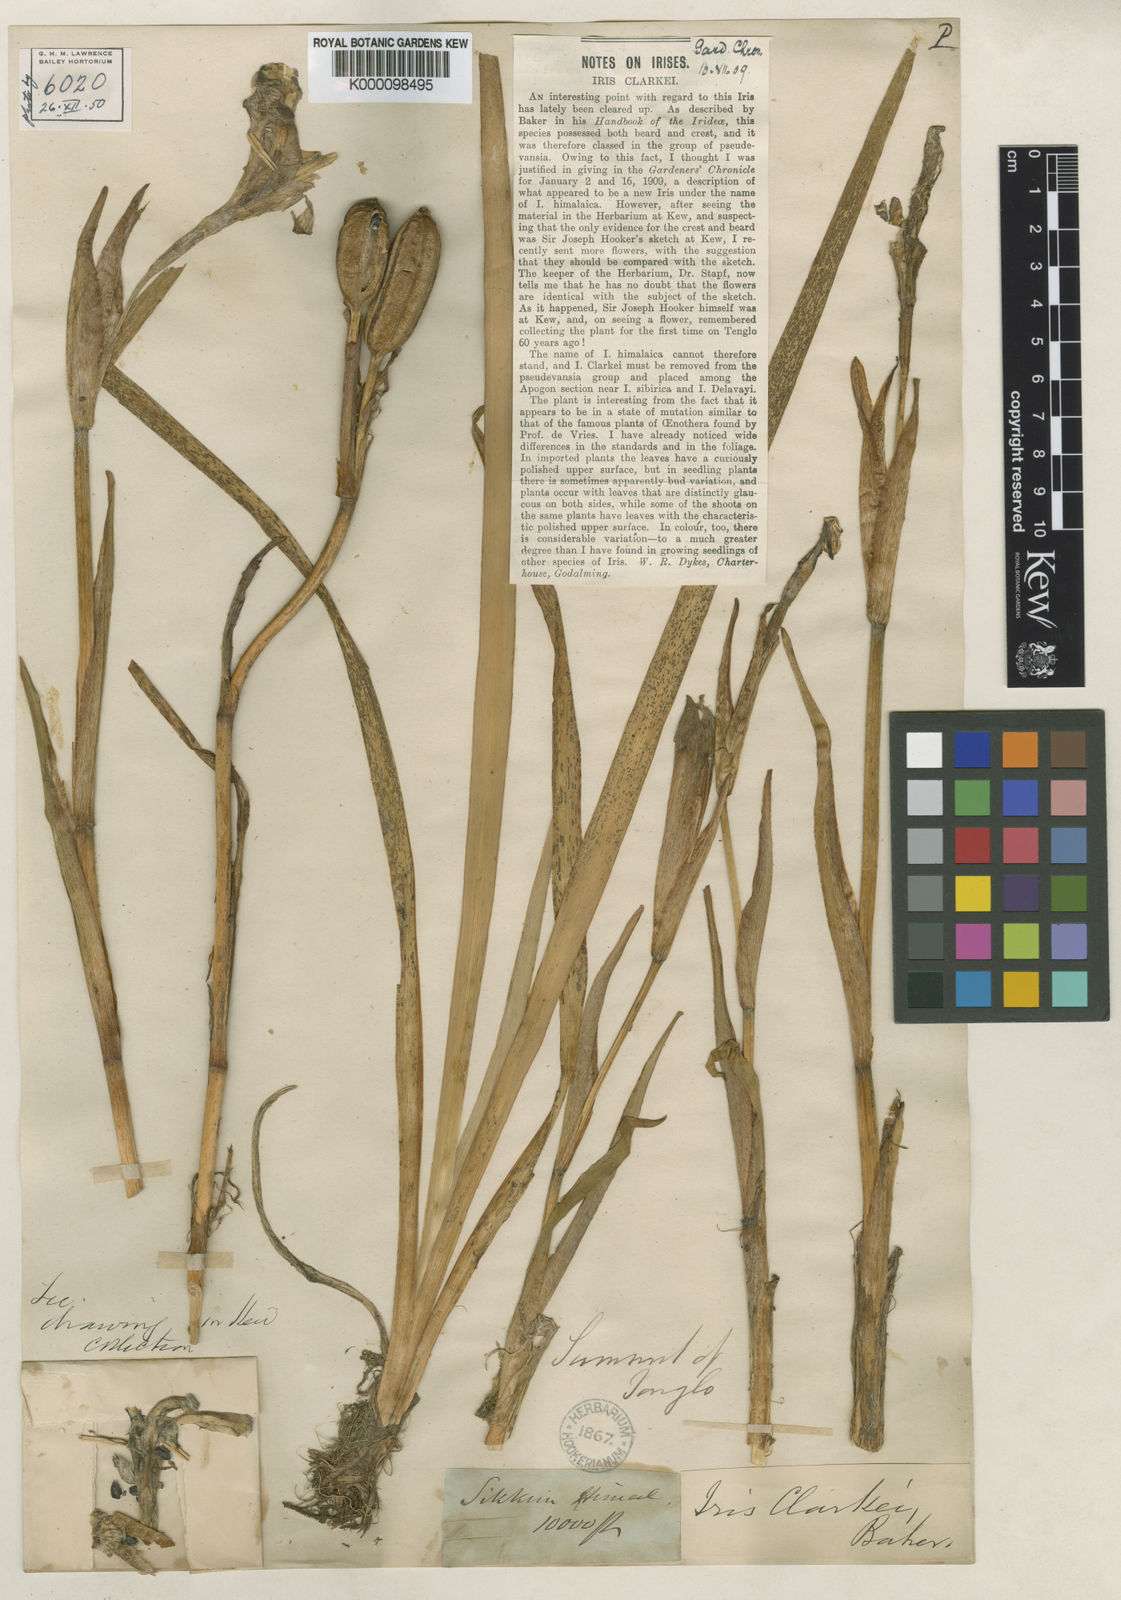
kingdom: Plantae
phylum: Tracheophyta
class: Liliopsida
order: Asparagales
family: Iridaceae
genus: Iris
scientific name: Iris
